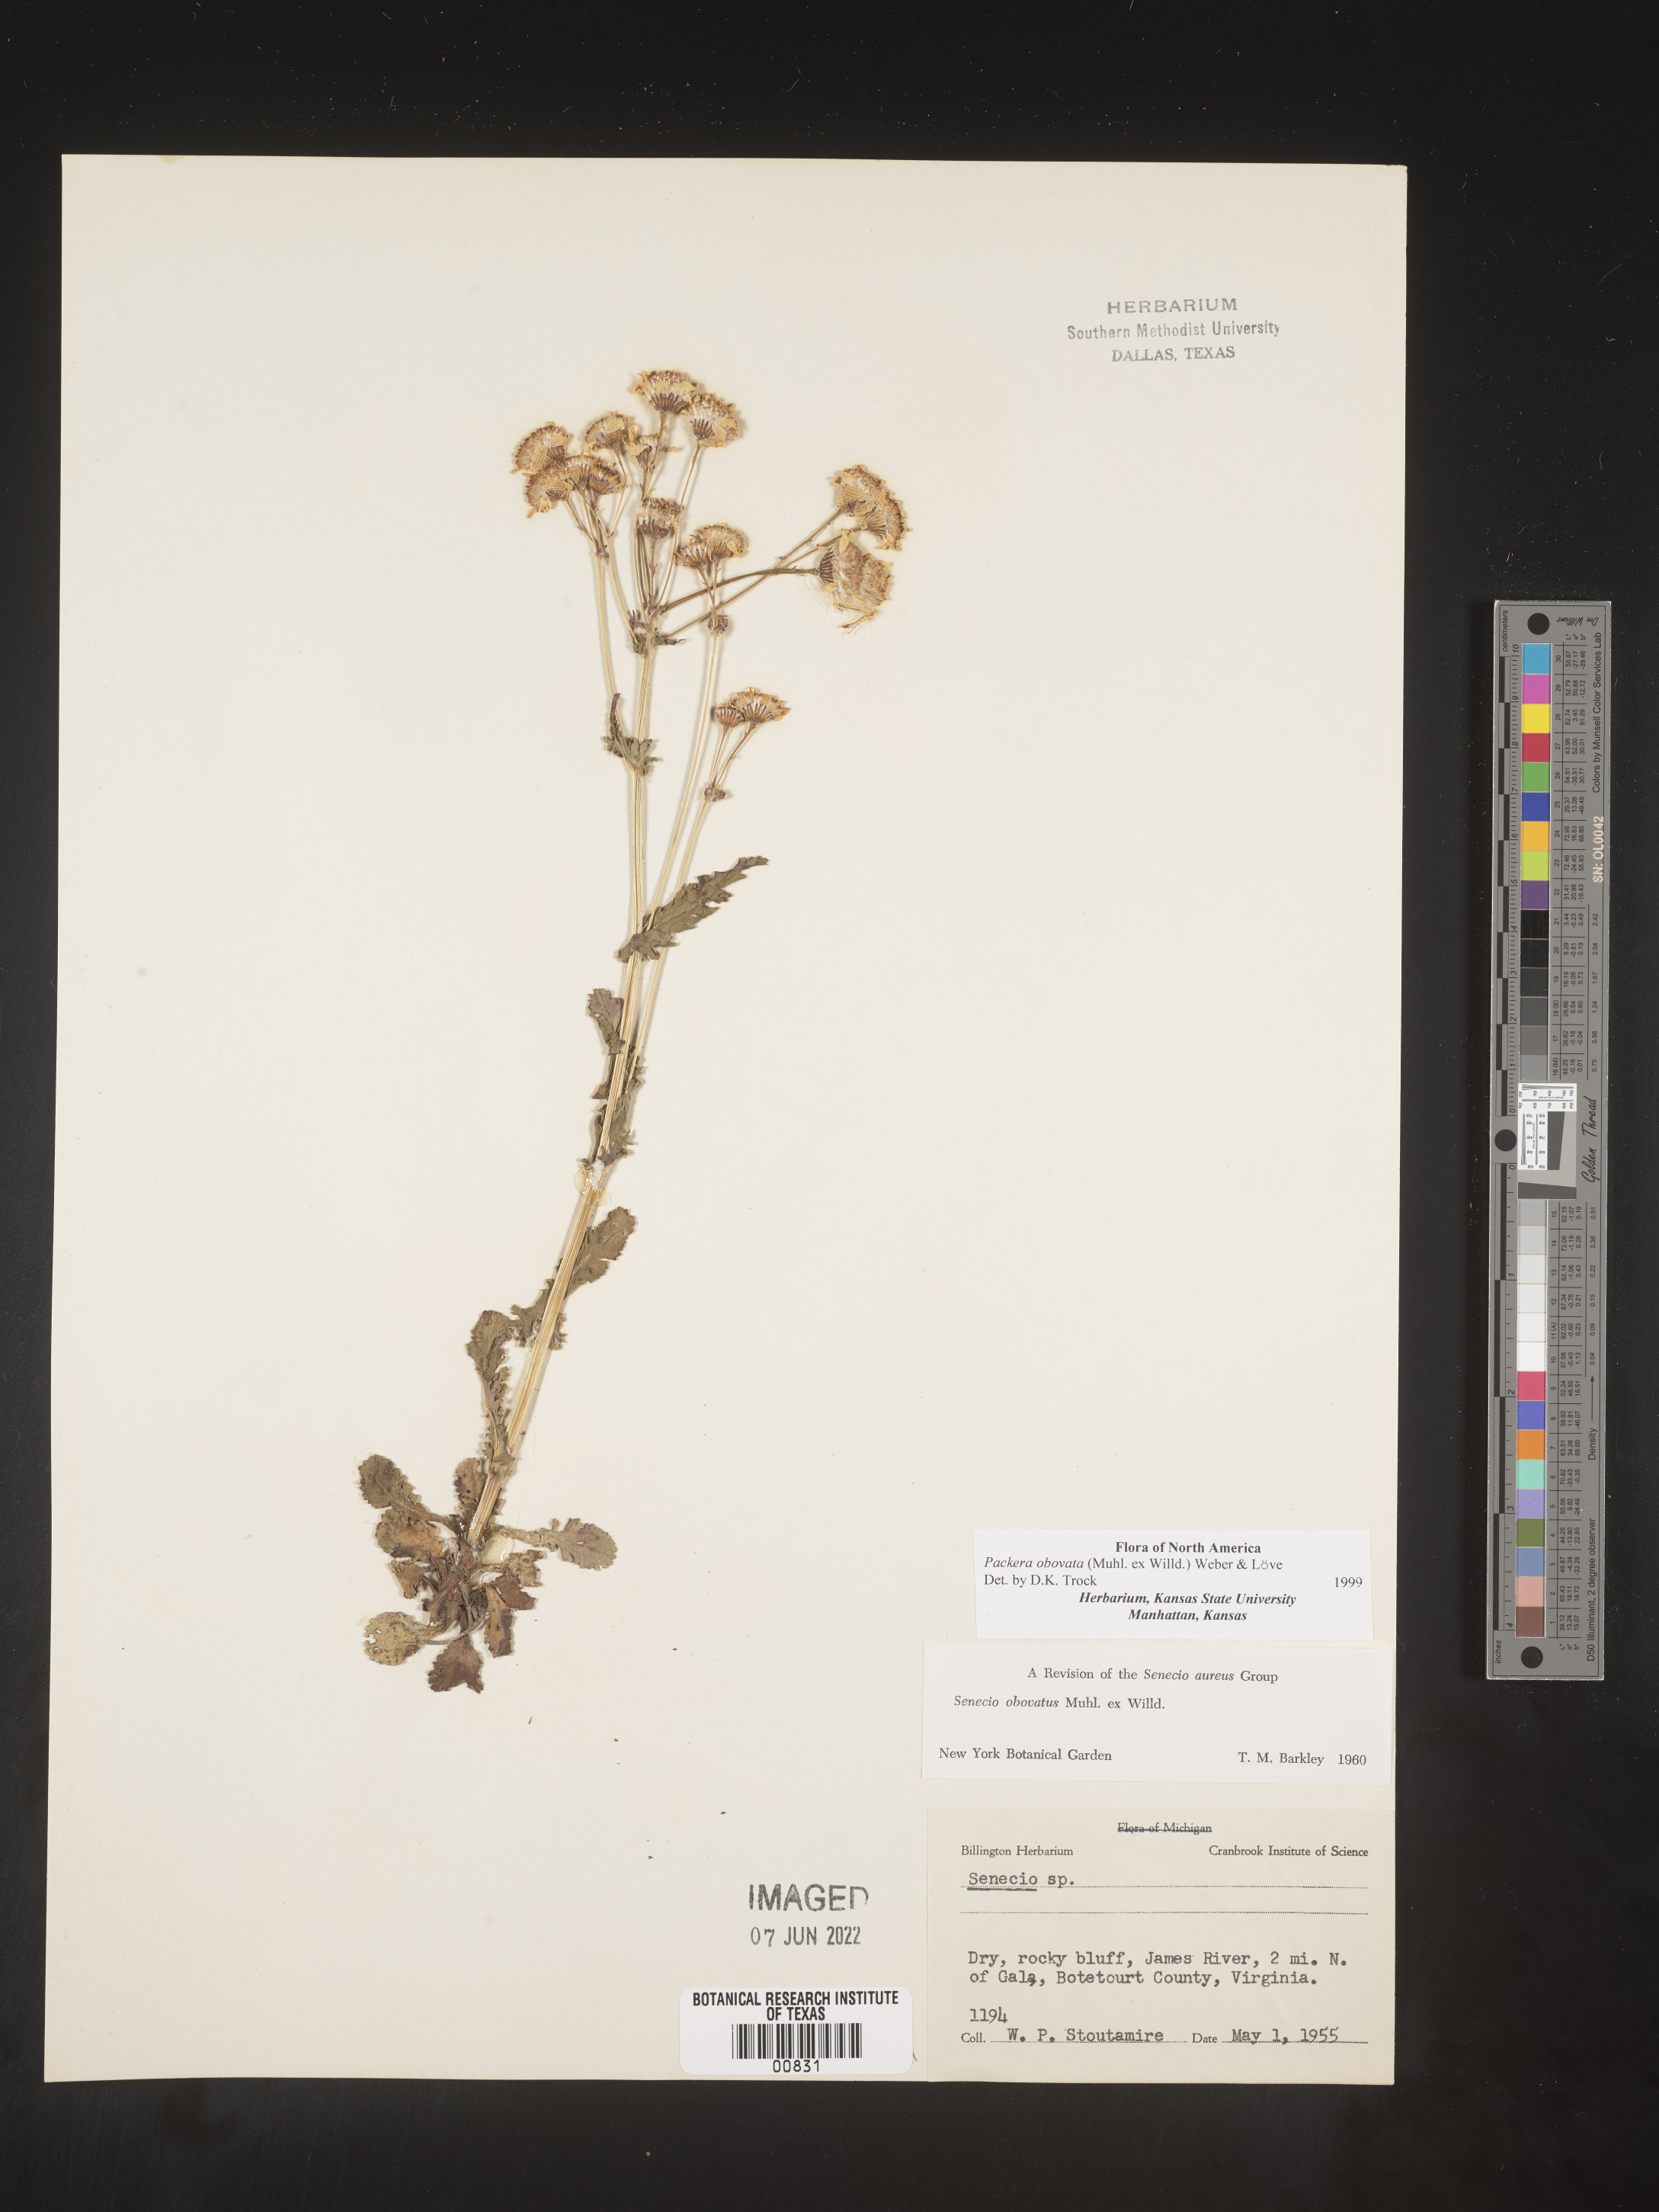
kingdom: Plantae
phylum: Tracheophyta
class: Magnoliopsida
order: Asterales
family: Asteraceae
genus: Packera
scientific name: Packera obovata
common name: Round-leaf ragwort
